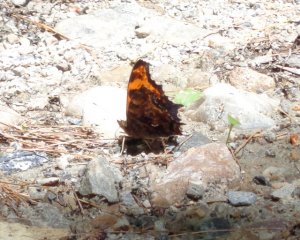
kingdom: Animalia
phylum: Arthropoda
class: Insecta
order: Lepidoptera
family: Nymphalidae
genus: Polygonia
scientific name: Polygonia comma
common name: Eastern Comma
